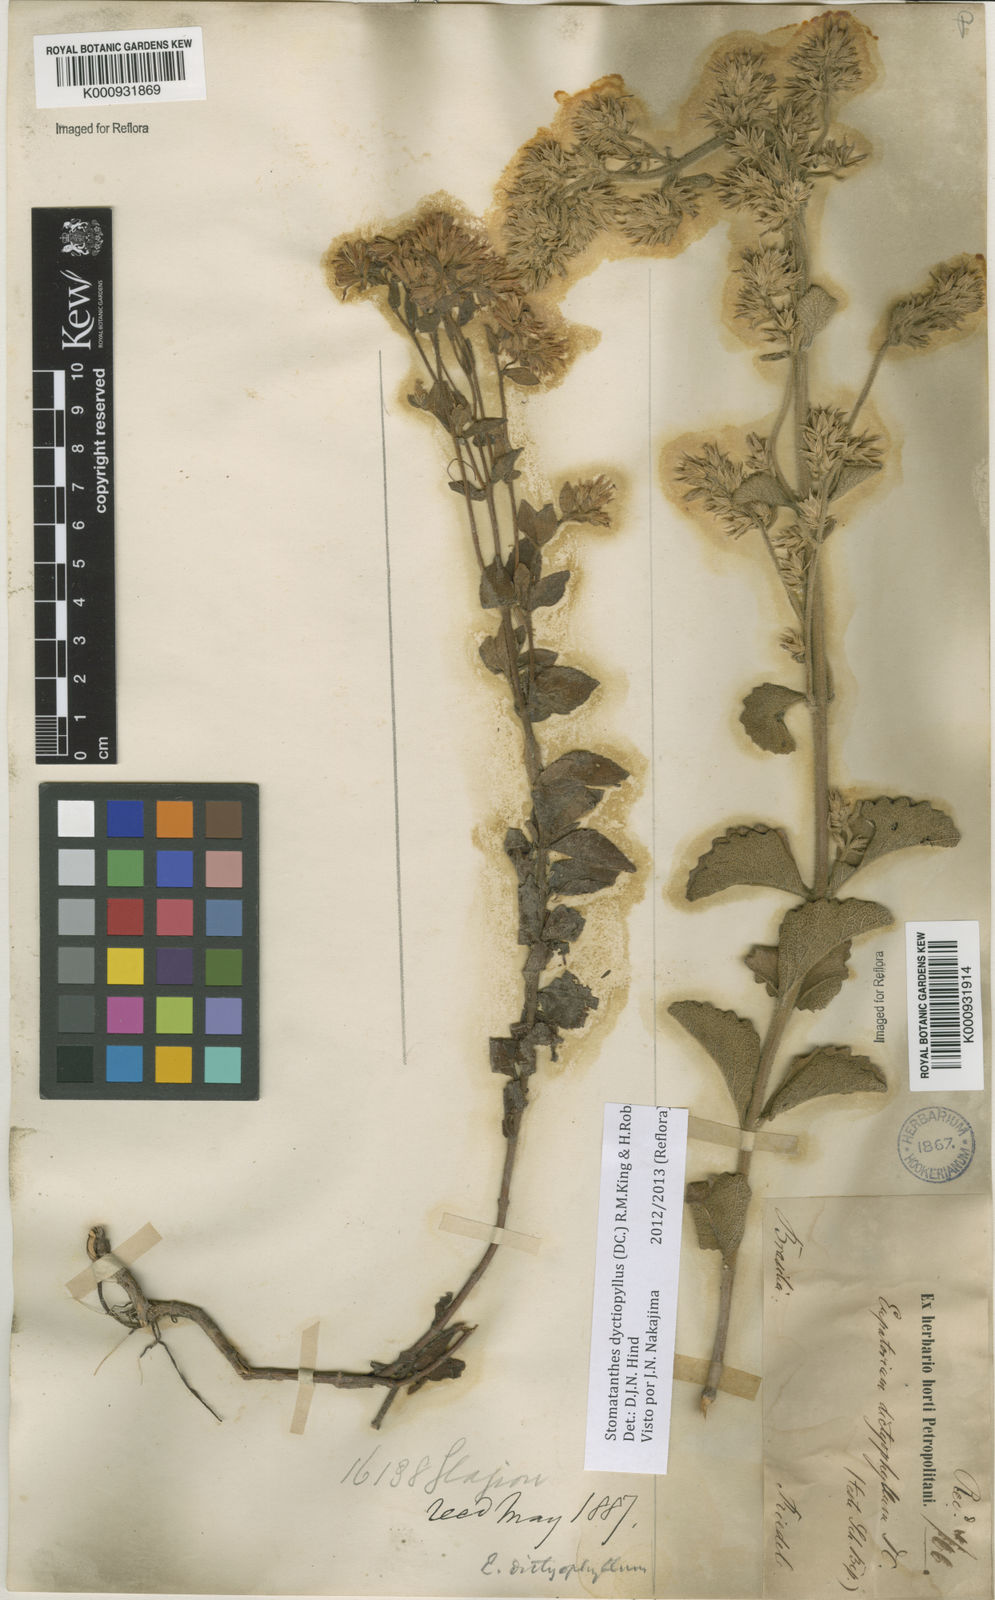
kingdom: Plantae
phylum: Tracheophyta
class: Magnoliopsida
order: Asterales
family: Asteraceae
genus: Stomatanthes
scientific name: Stomatanthes dictyophyllus
